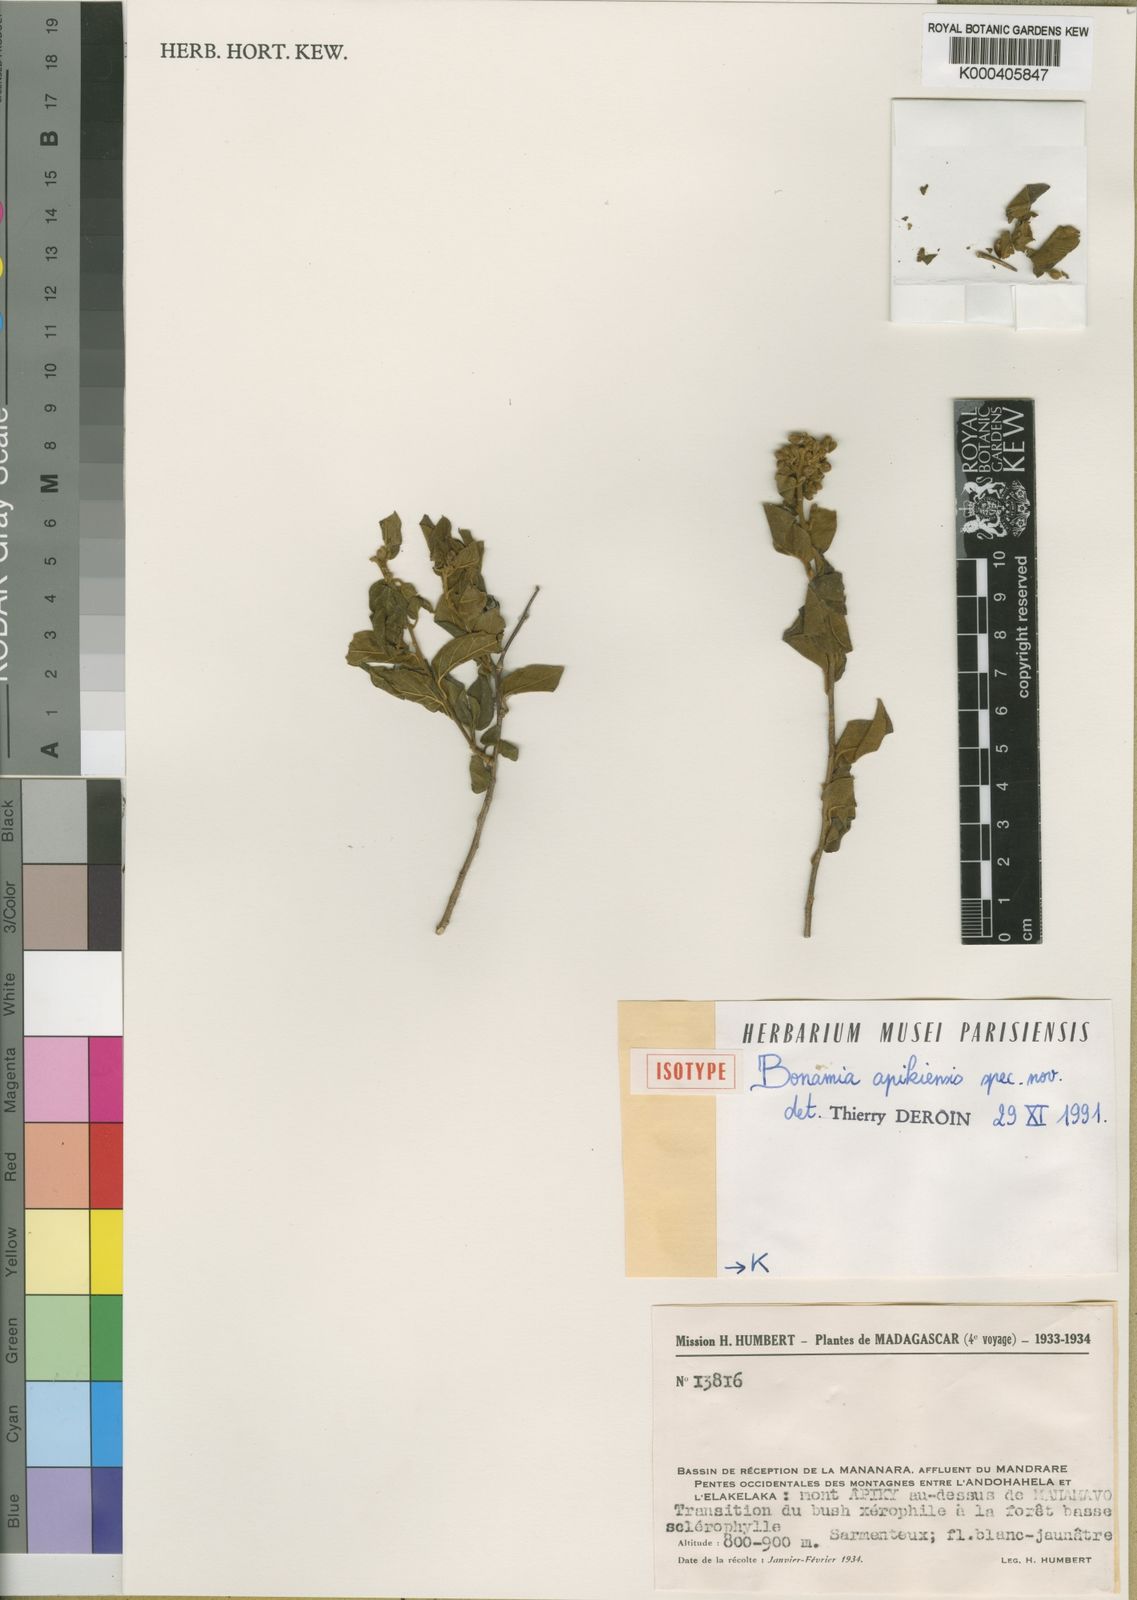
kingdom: Plantae
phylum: Tracheophyta
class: Magnoliopsida
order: Solanales
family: Convolvulaceae
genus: Bonamia
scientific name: Bonamia apikiensis
